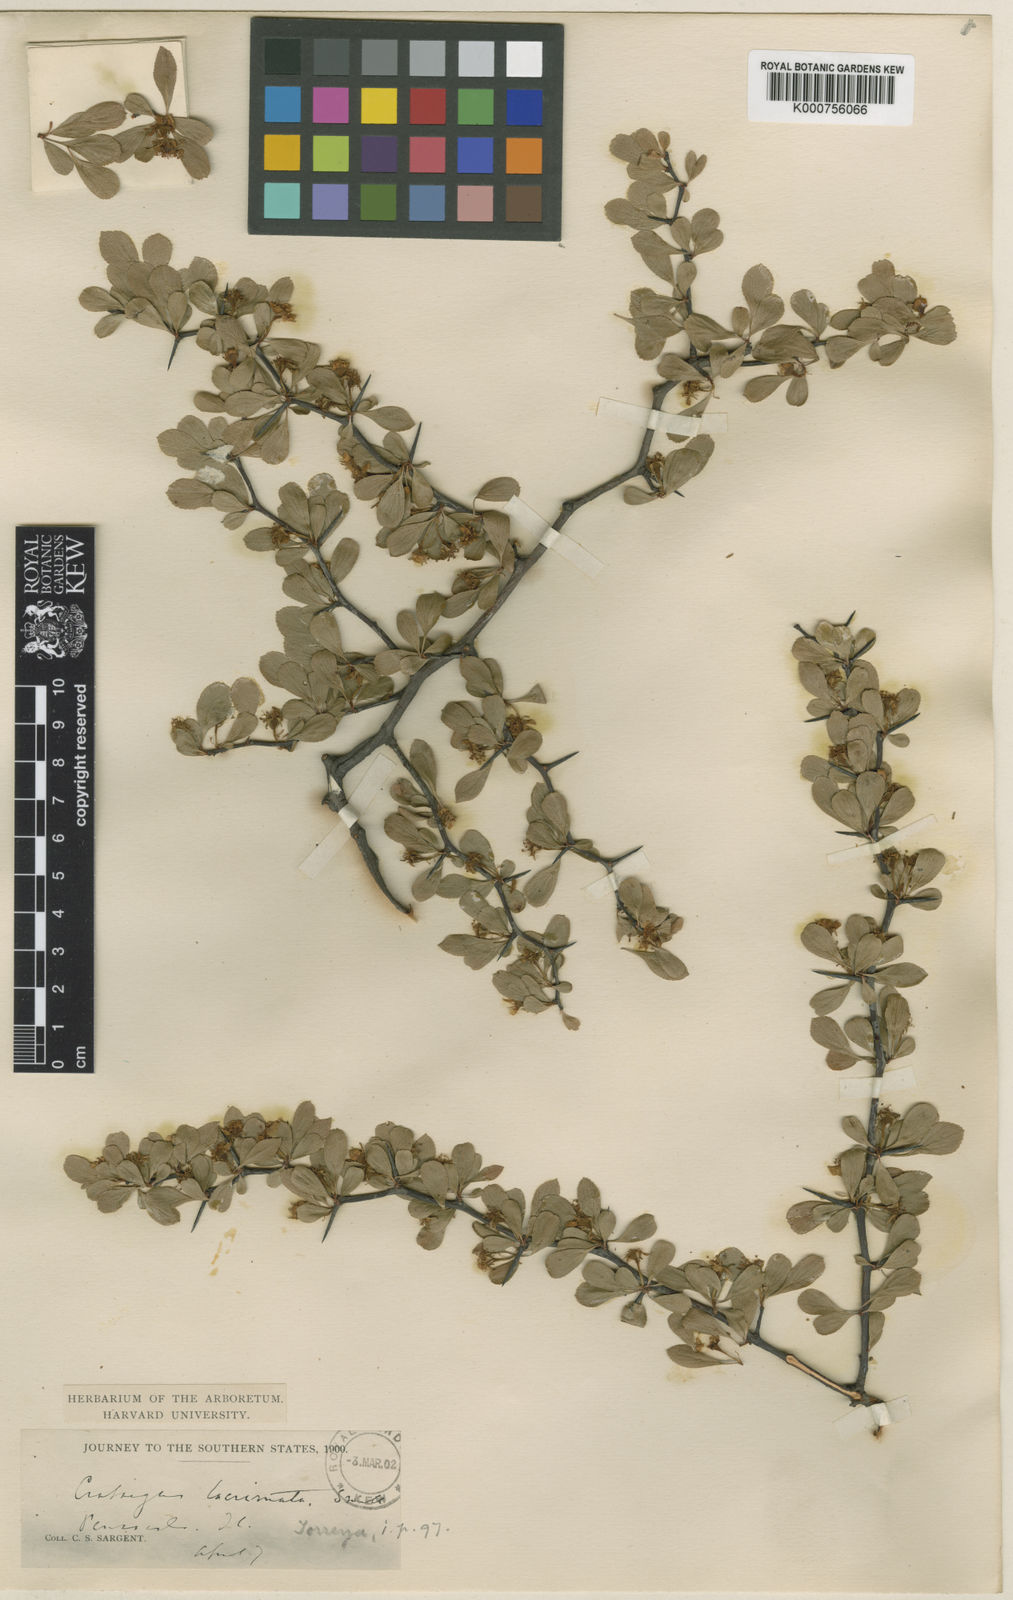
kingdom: Plantae
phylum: Tracheophyta
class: Magnoliopsida
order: Rosales
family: Rosaceae
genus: Crataegus
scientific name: Crataegus lacrimata
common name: Weeping hawthorn
